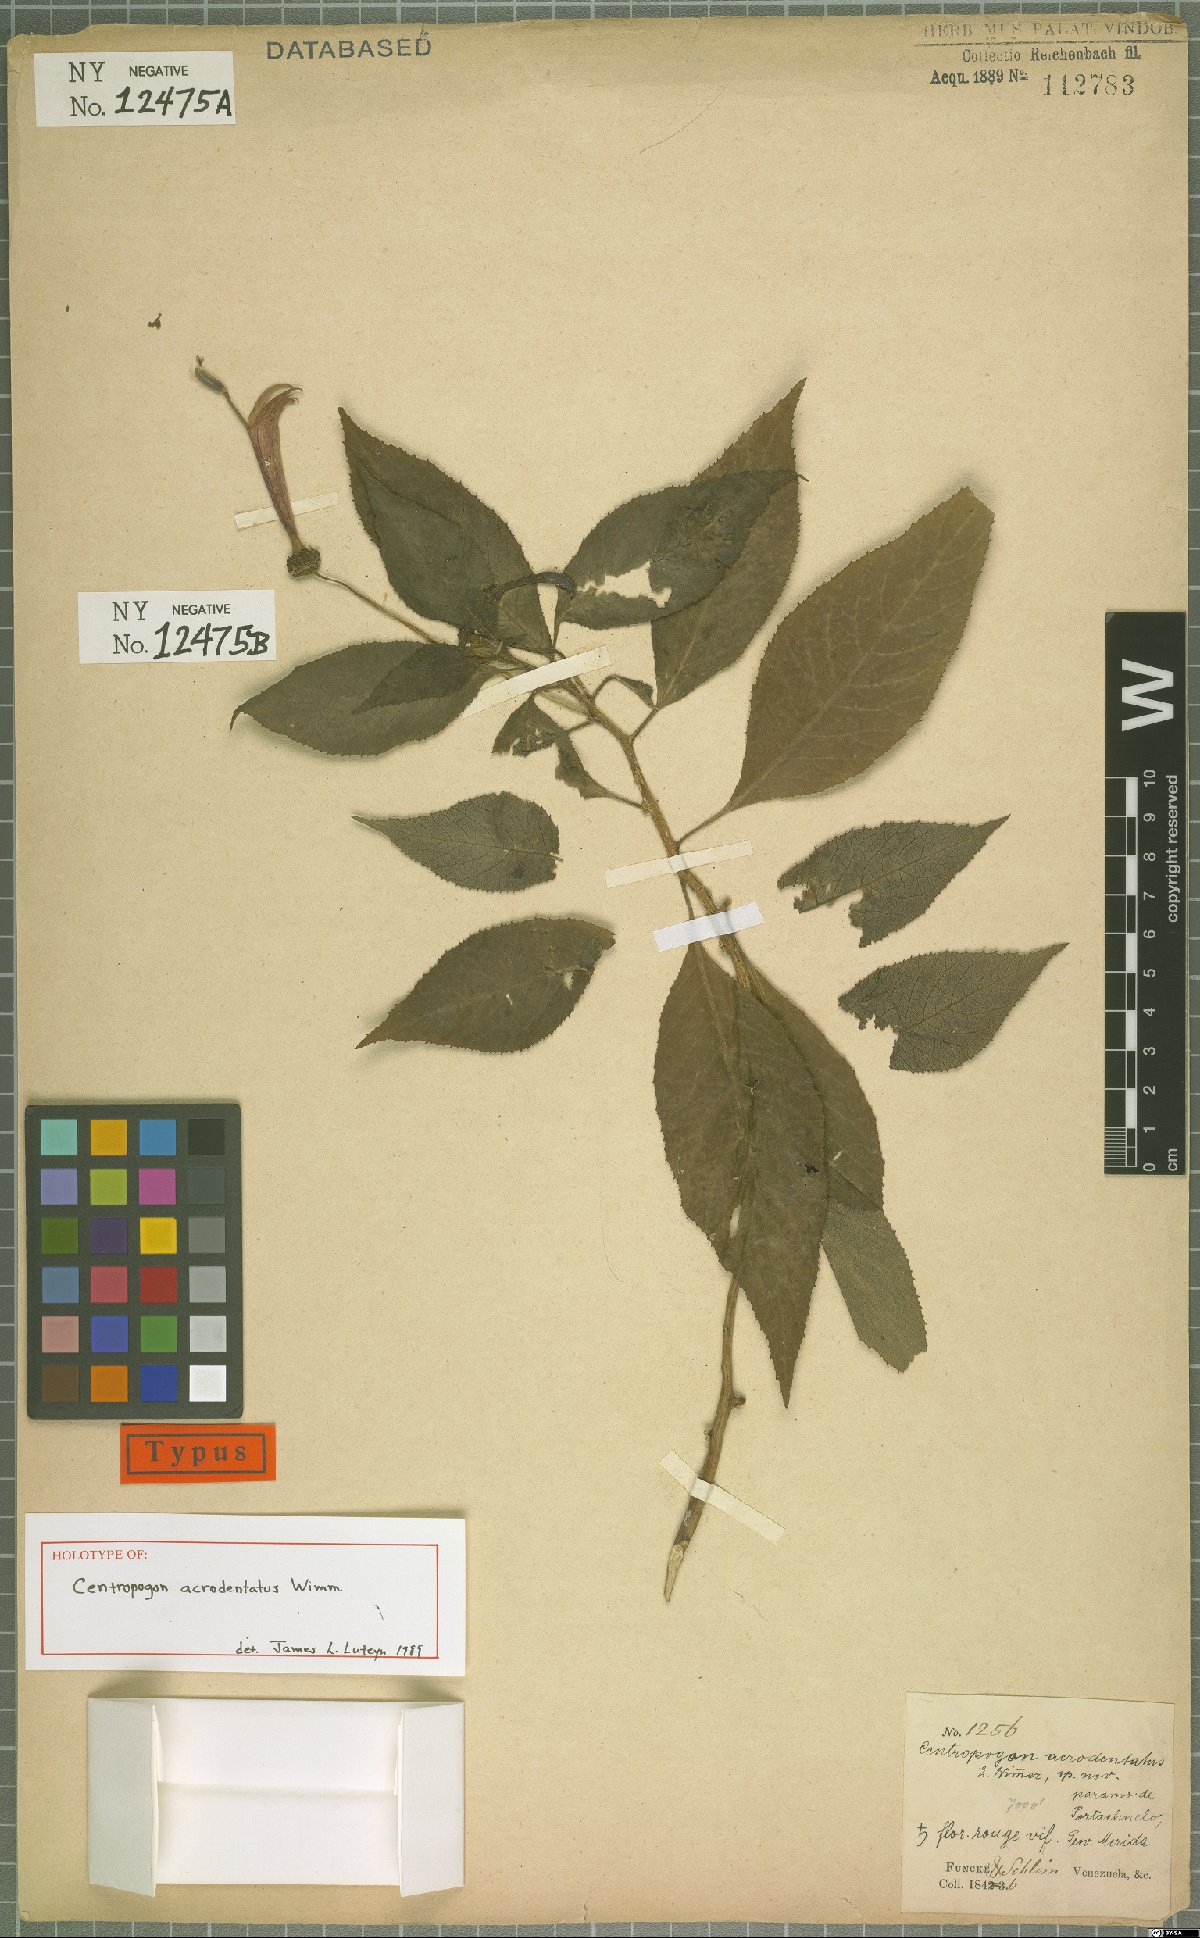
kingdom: Plantae
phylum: Tracheophyta
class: Magnoliopsida
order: Asterales
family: Campanulaceae
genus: Centropogon
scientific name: Centropogon acrodentatus
